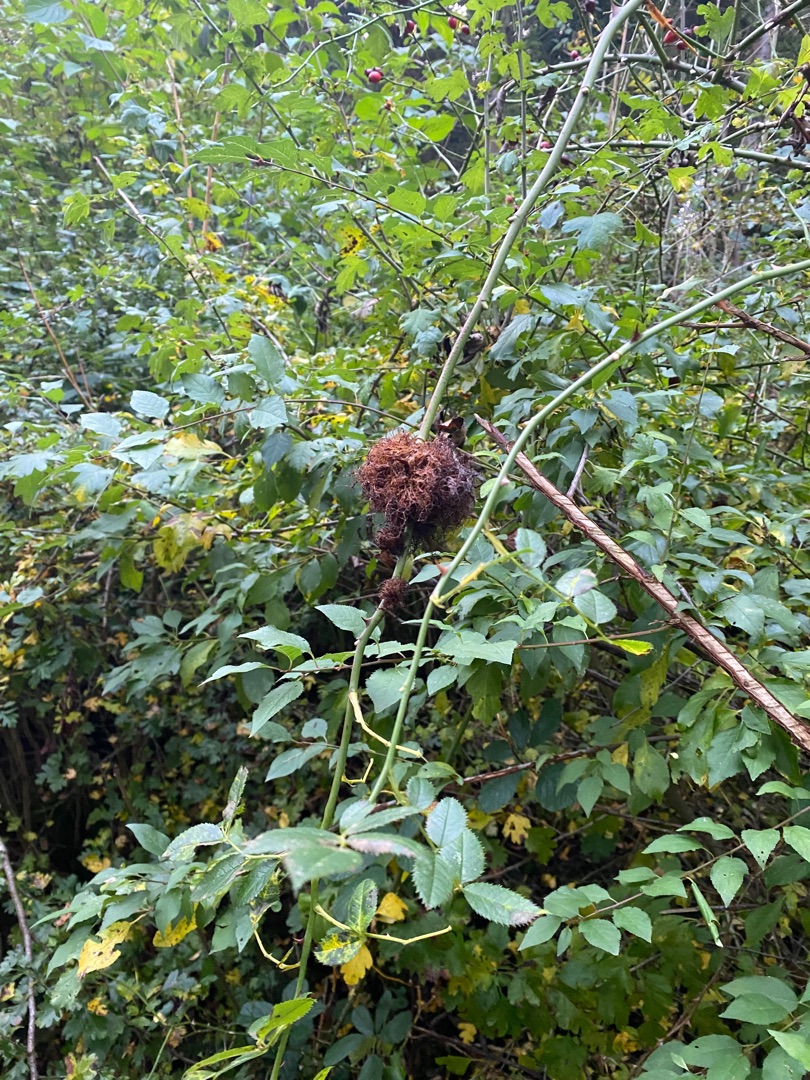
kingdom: Animalia
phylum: Arthropoda
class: Insecta
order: Hymenoptera
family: Cynipidae
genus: Diplolepis
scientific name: Diplolepis rosae
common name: Bedeguargalhveps
